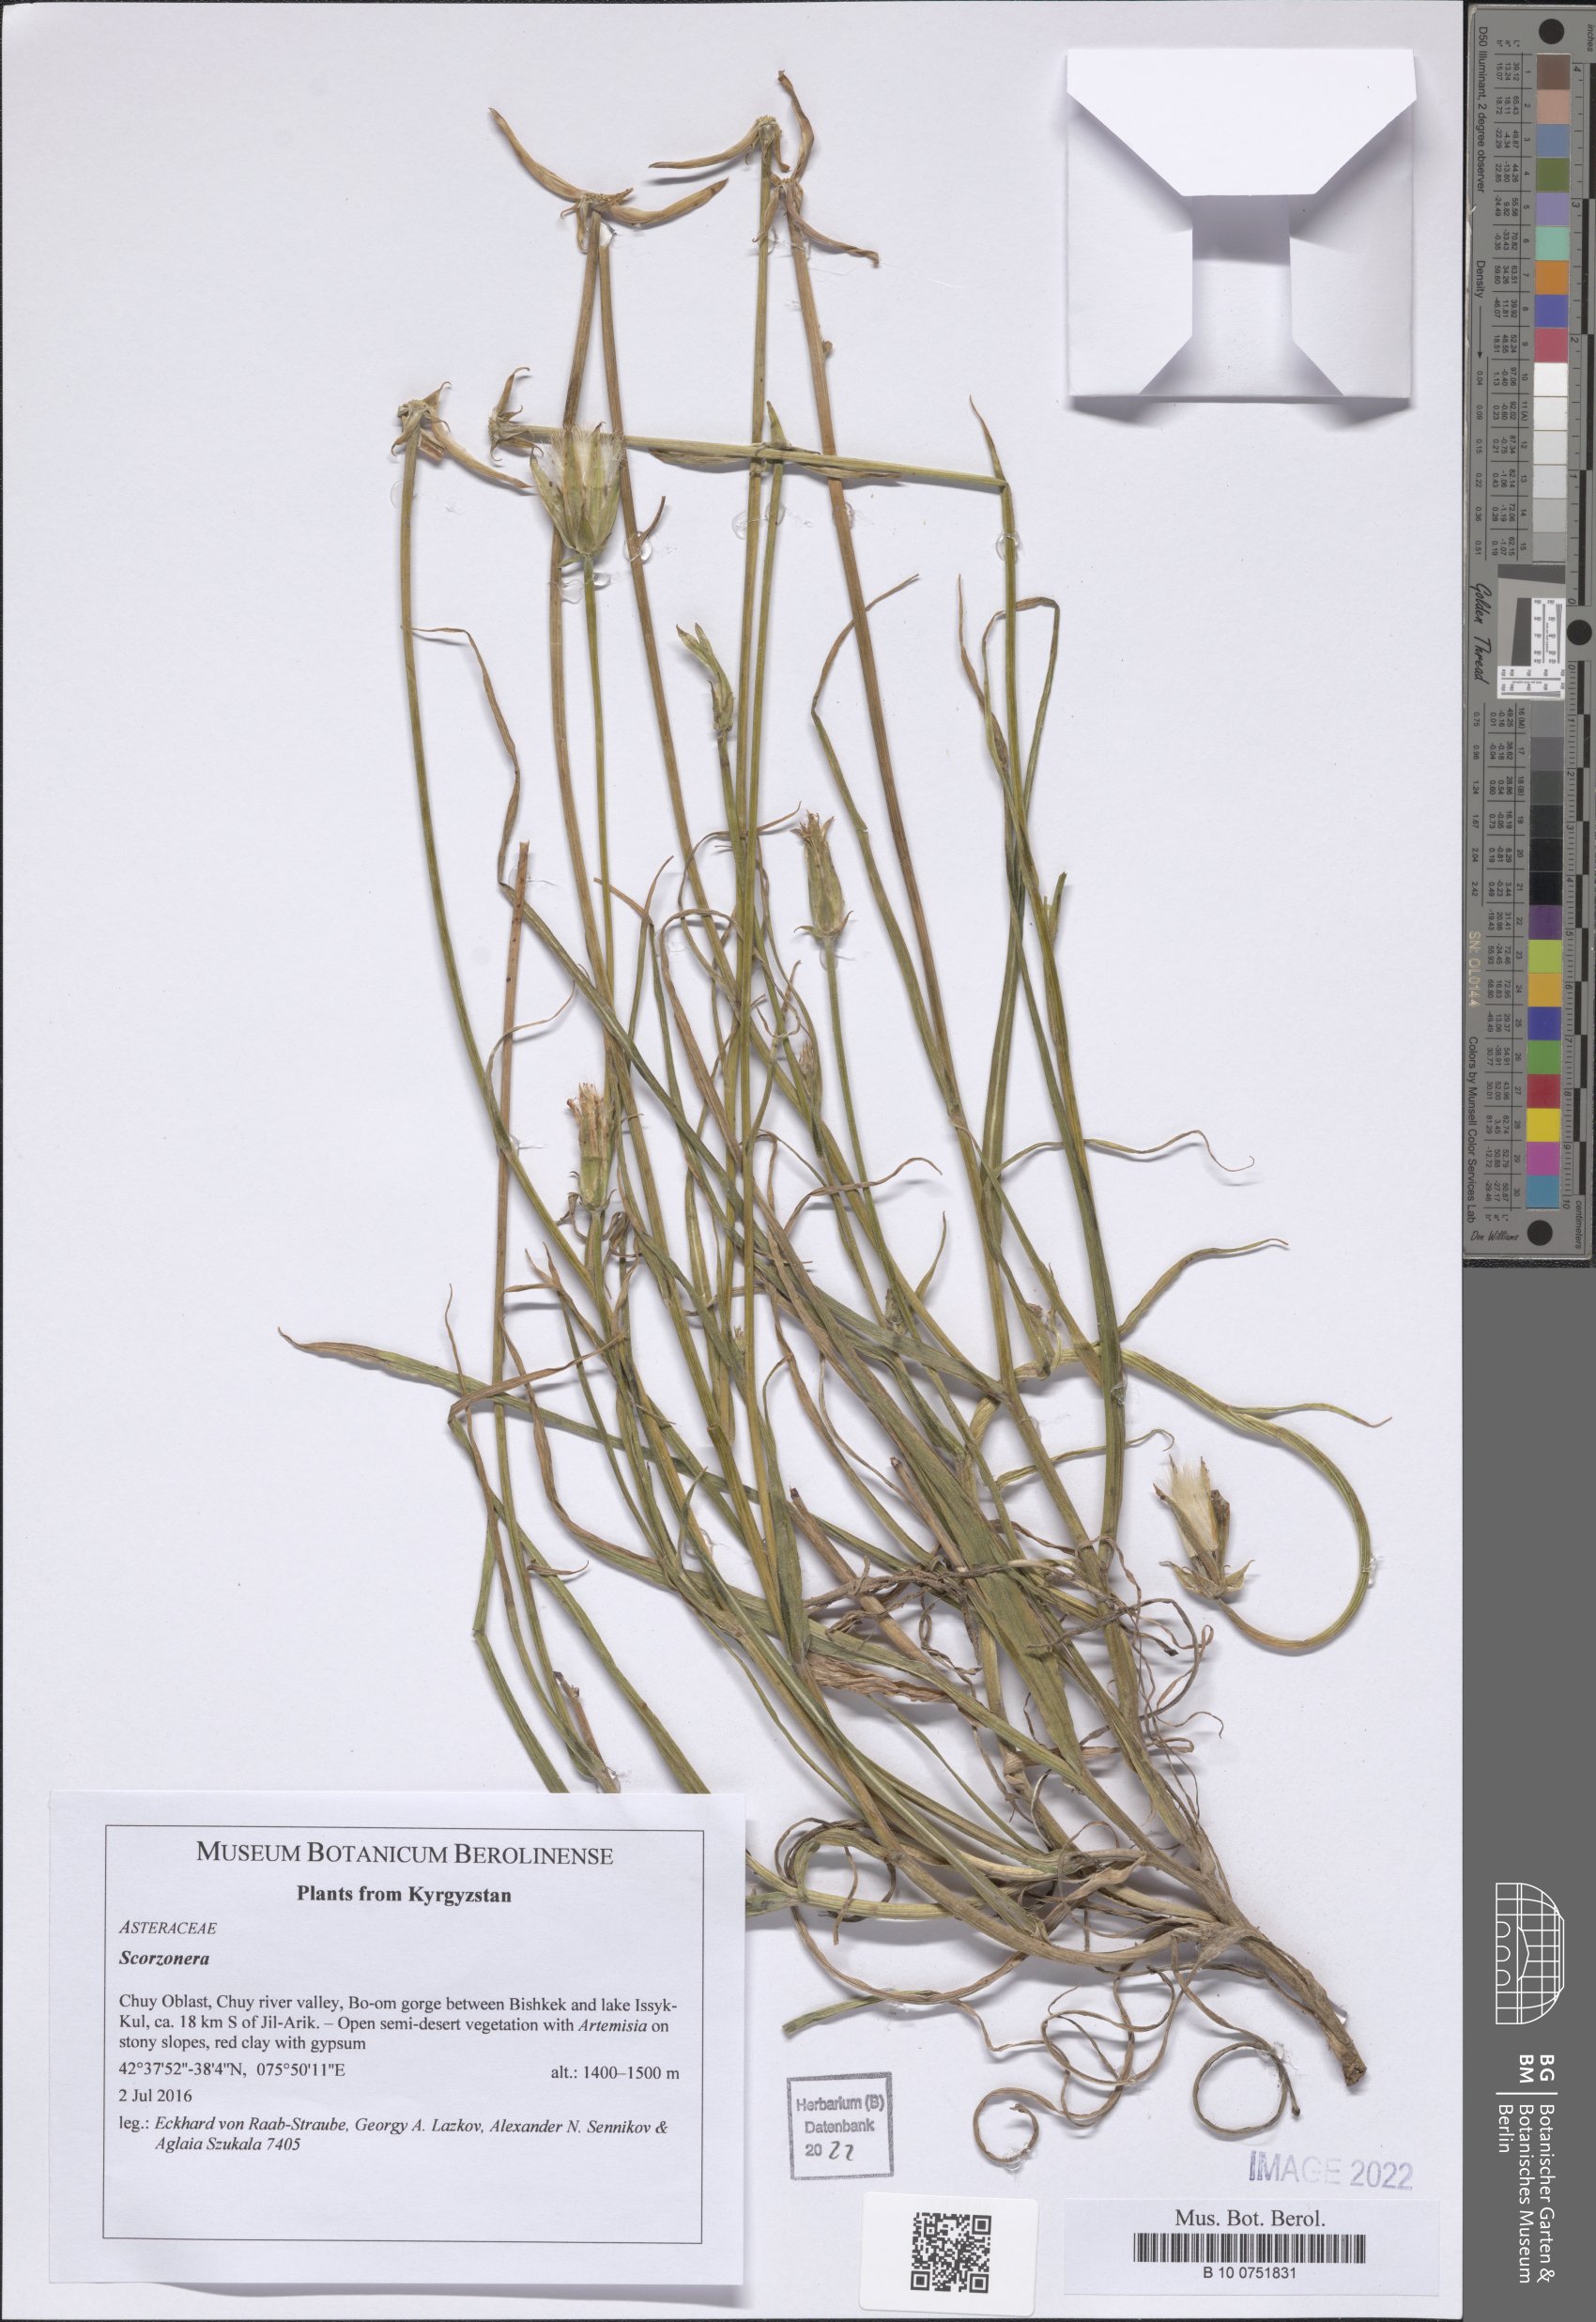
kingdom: Plantae
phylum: Tracheophyta
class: Magnoliopsida
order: Asterales
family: Asteraceae
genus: Scorzonera
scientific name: Scorzonera
